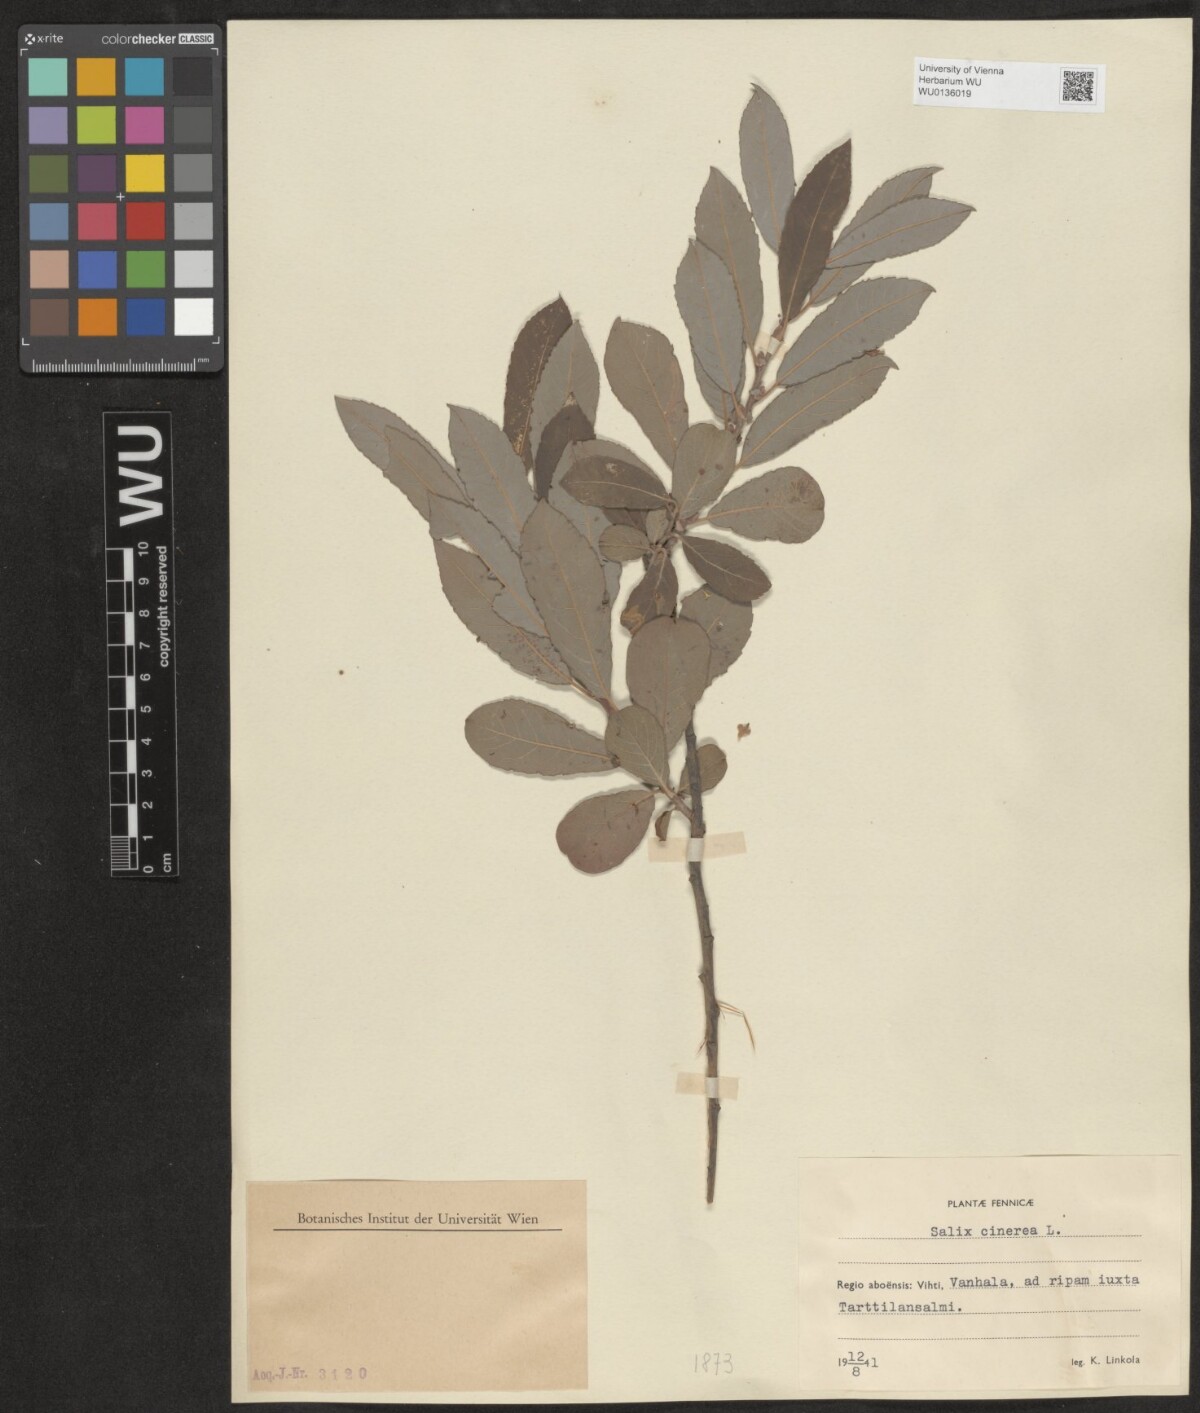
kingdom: Plantae
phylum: Tracheophyta
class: Magnoliopsida
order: Malpighiales
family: Salicaceae
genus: Salix
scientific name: Salix cinerea
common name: Common sallow
